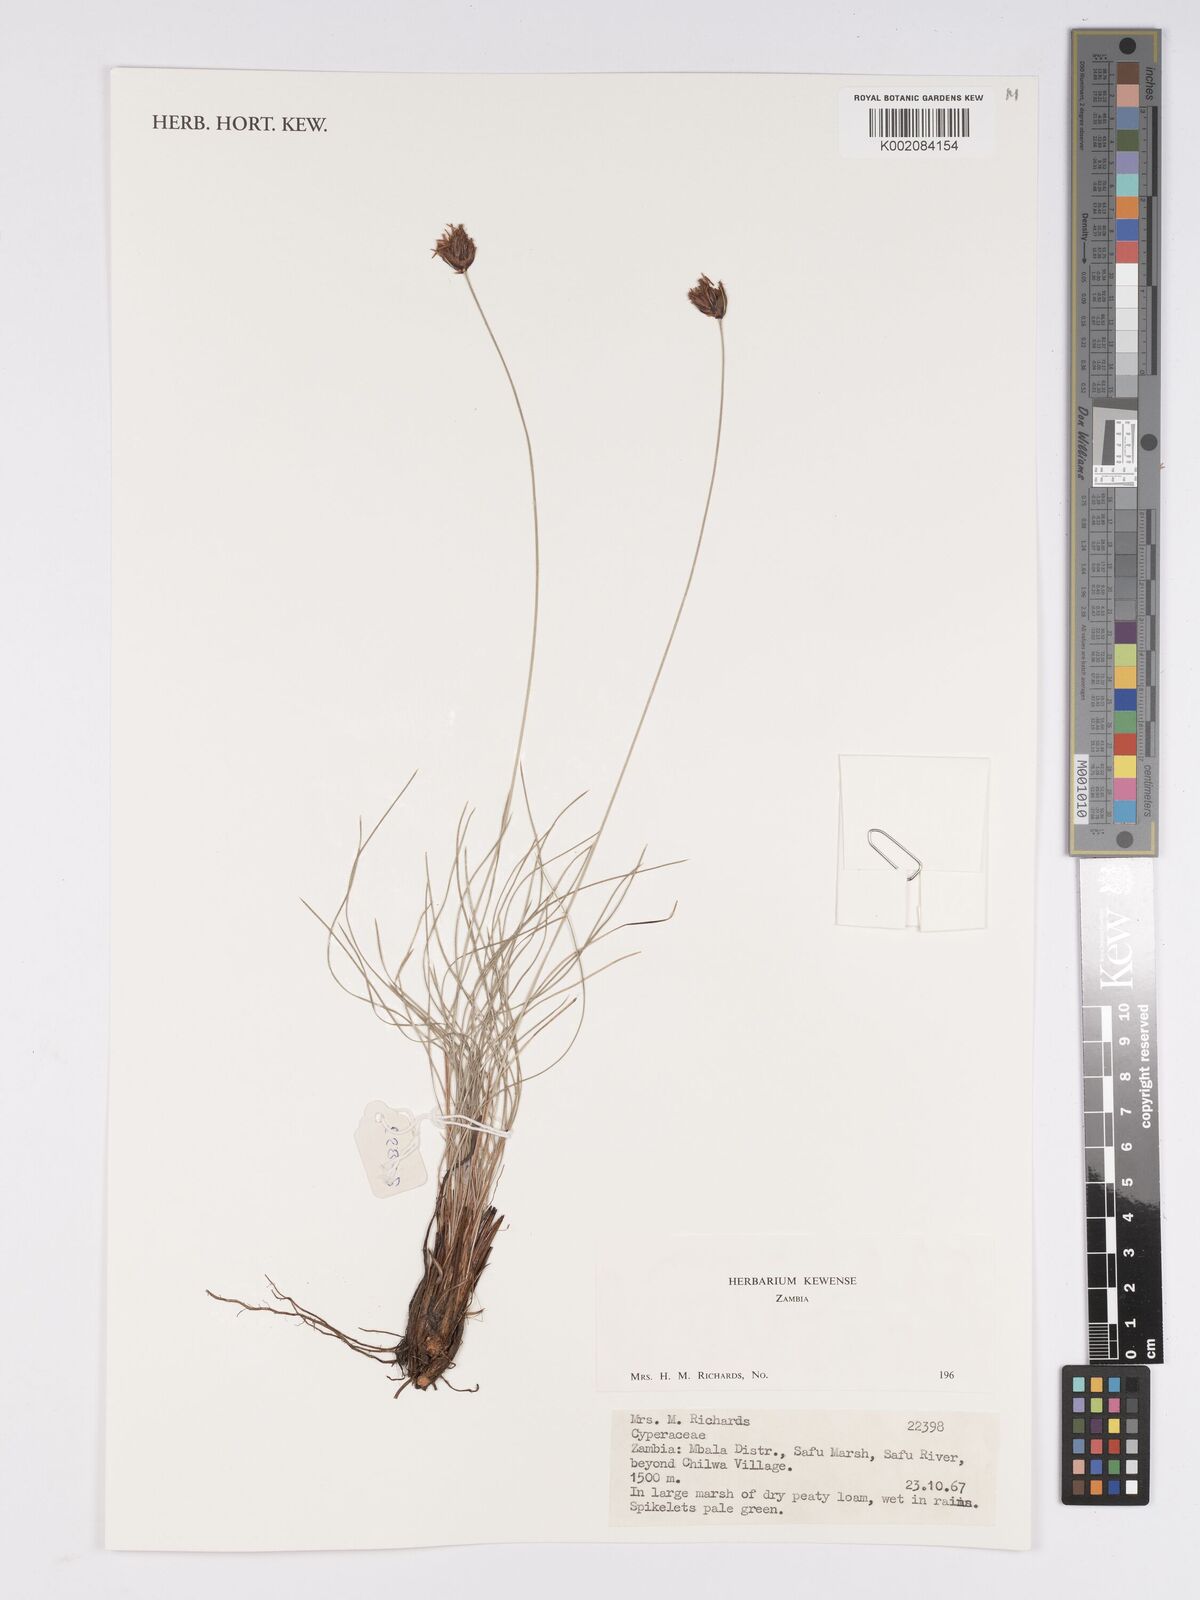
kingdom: Plantae
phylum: Tracheophyta
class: Liliopsida
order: Poales
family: Cyperaceae
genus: Bulbostylis
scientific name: Bulbostylis
